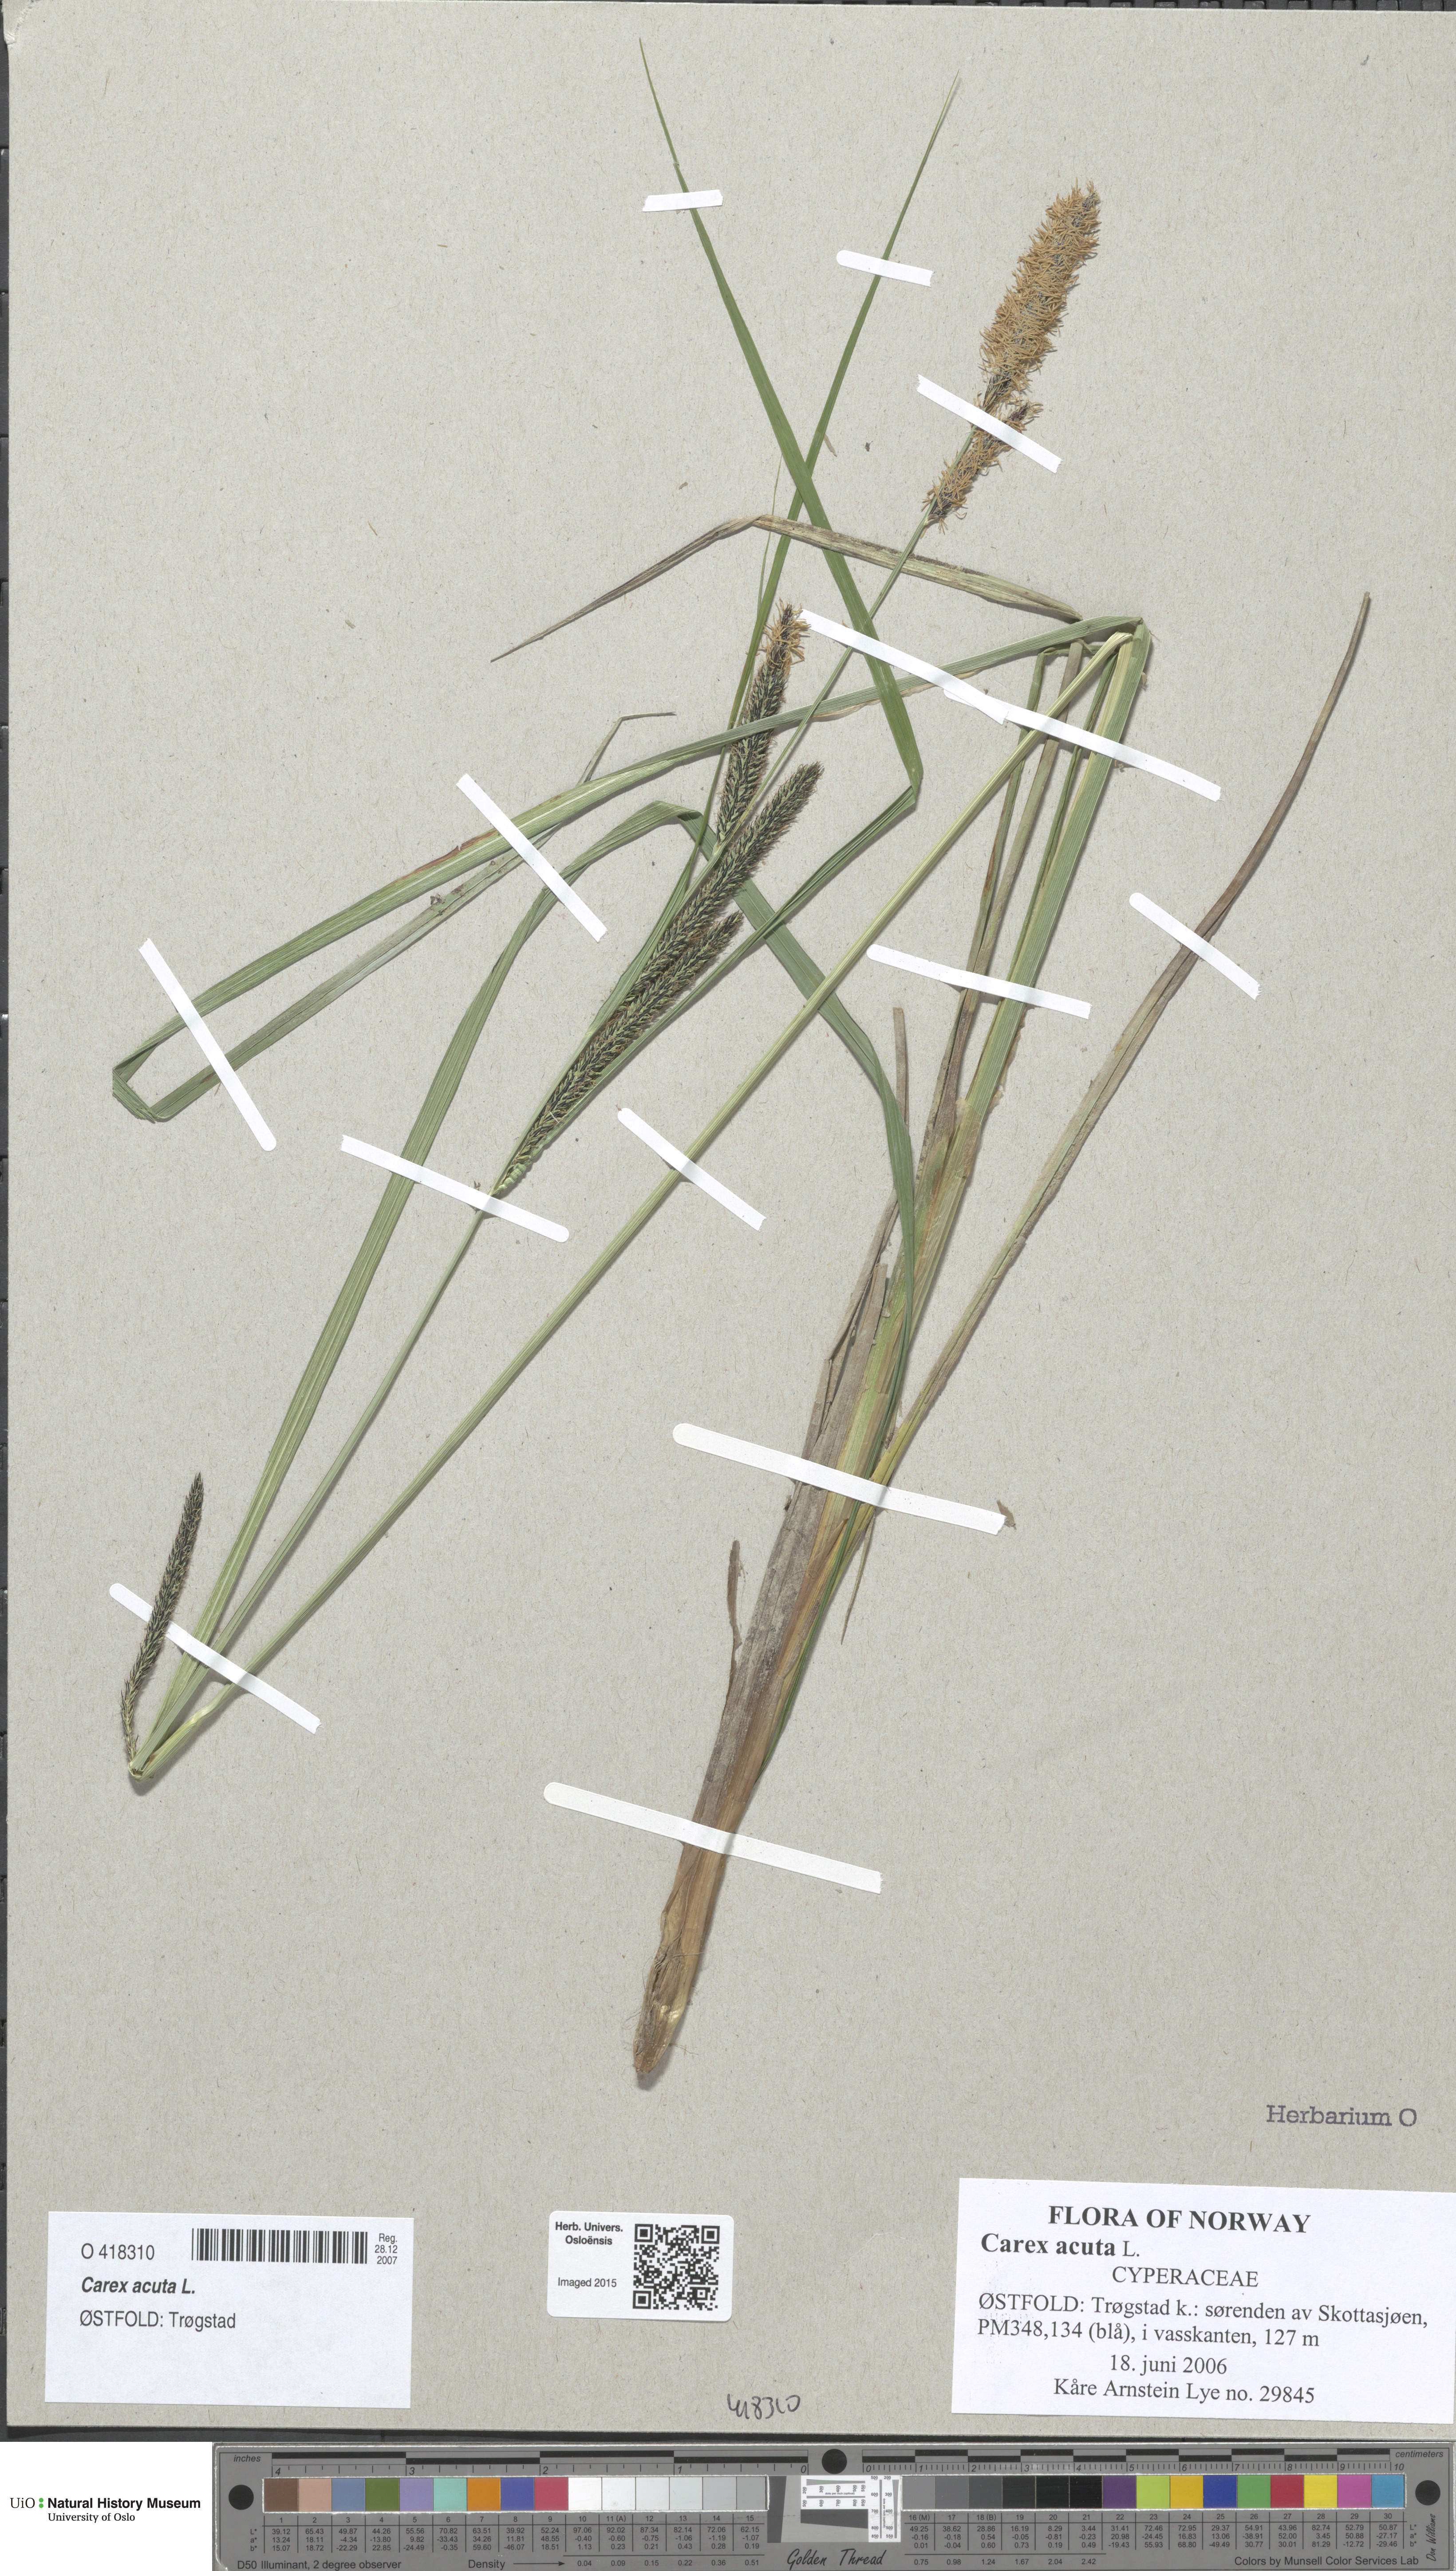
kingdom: Plantae
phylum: Tracheophyta
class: Liliopsida
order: Poales
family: Cyperaceae
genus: Carex
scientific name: Carex acuta
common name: Slender tufted-sedge
